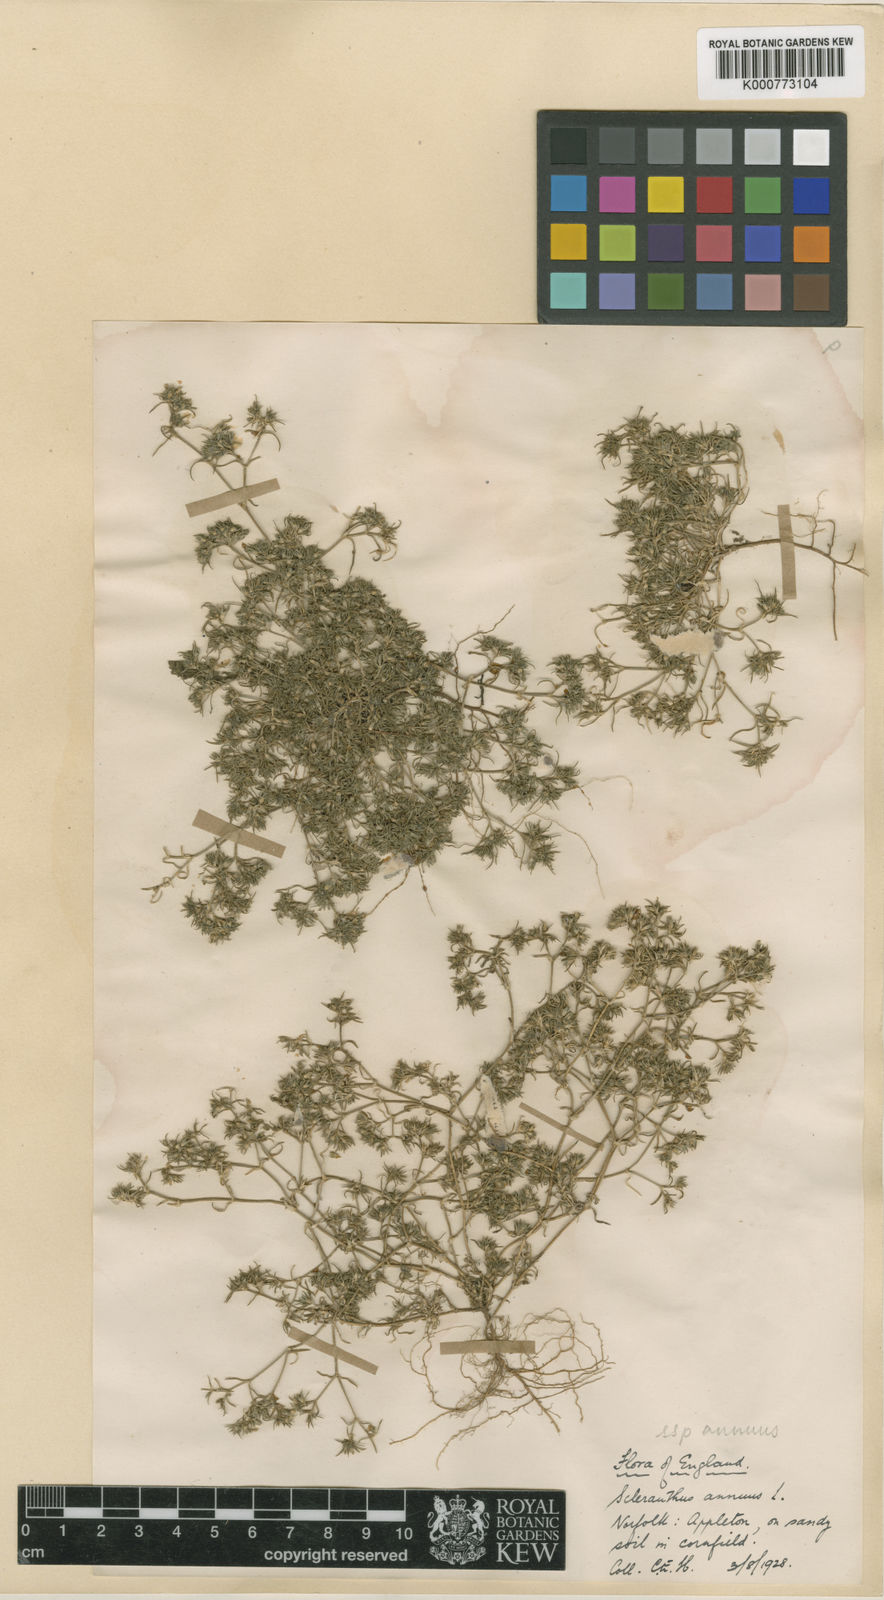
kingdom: Plantae
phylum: Tracheophyta
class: Magnoliopsida
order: Caryophyllales
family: Caryophyllaceae
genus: Scleranthus
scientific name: Scleranthus annuus
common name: Annual knawel
